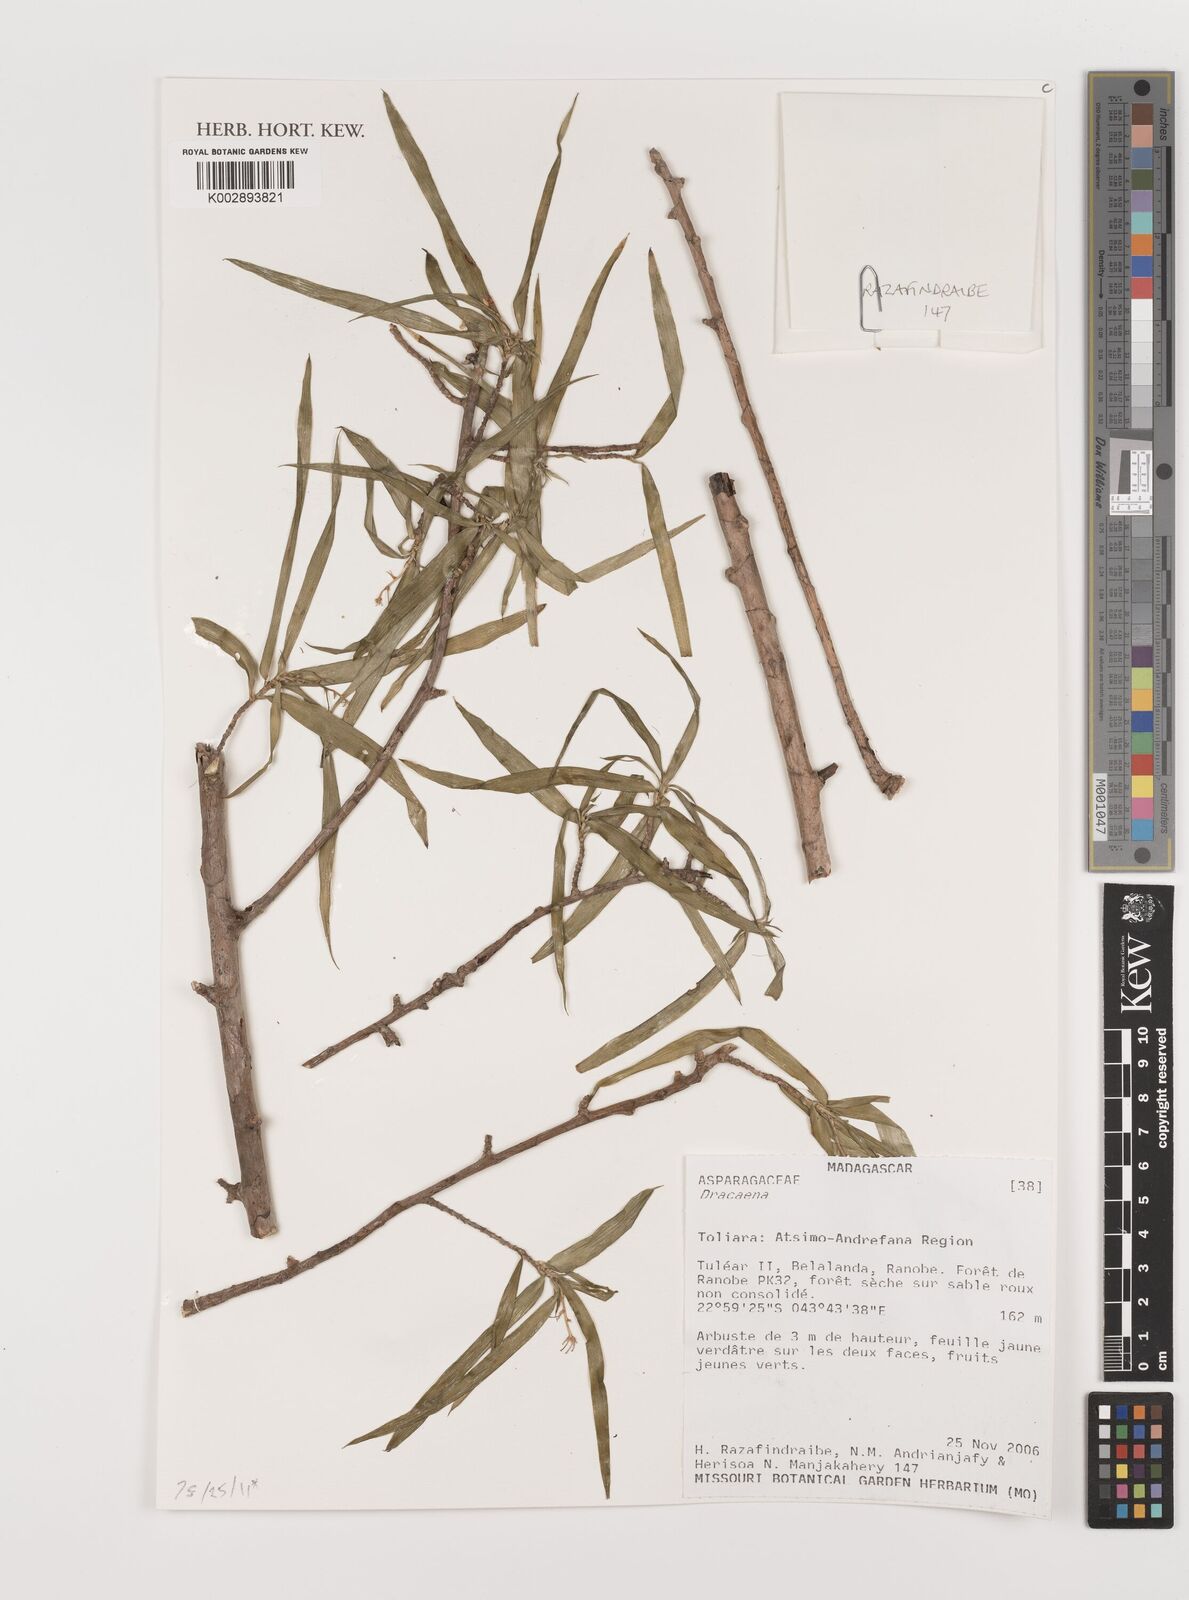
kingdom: Plantae
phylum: Tracheophyta
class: Liliopsida
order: Asparagales
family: Asparagaceae
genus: Dracaena
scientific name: Dracaena
